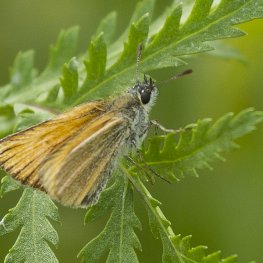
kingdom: Animalia
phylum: Arthropoda
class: Insecta
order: Lepidoptera
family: Hesperiidae
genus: Thymelicus
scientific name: Thymelicus lineola
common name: European Skipper
